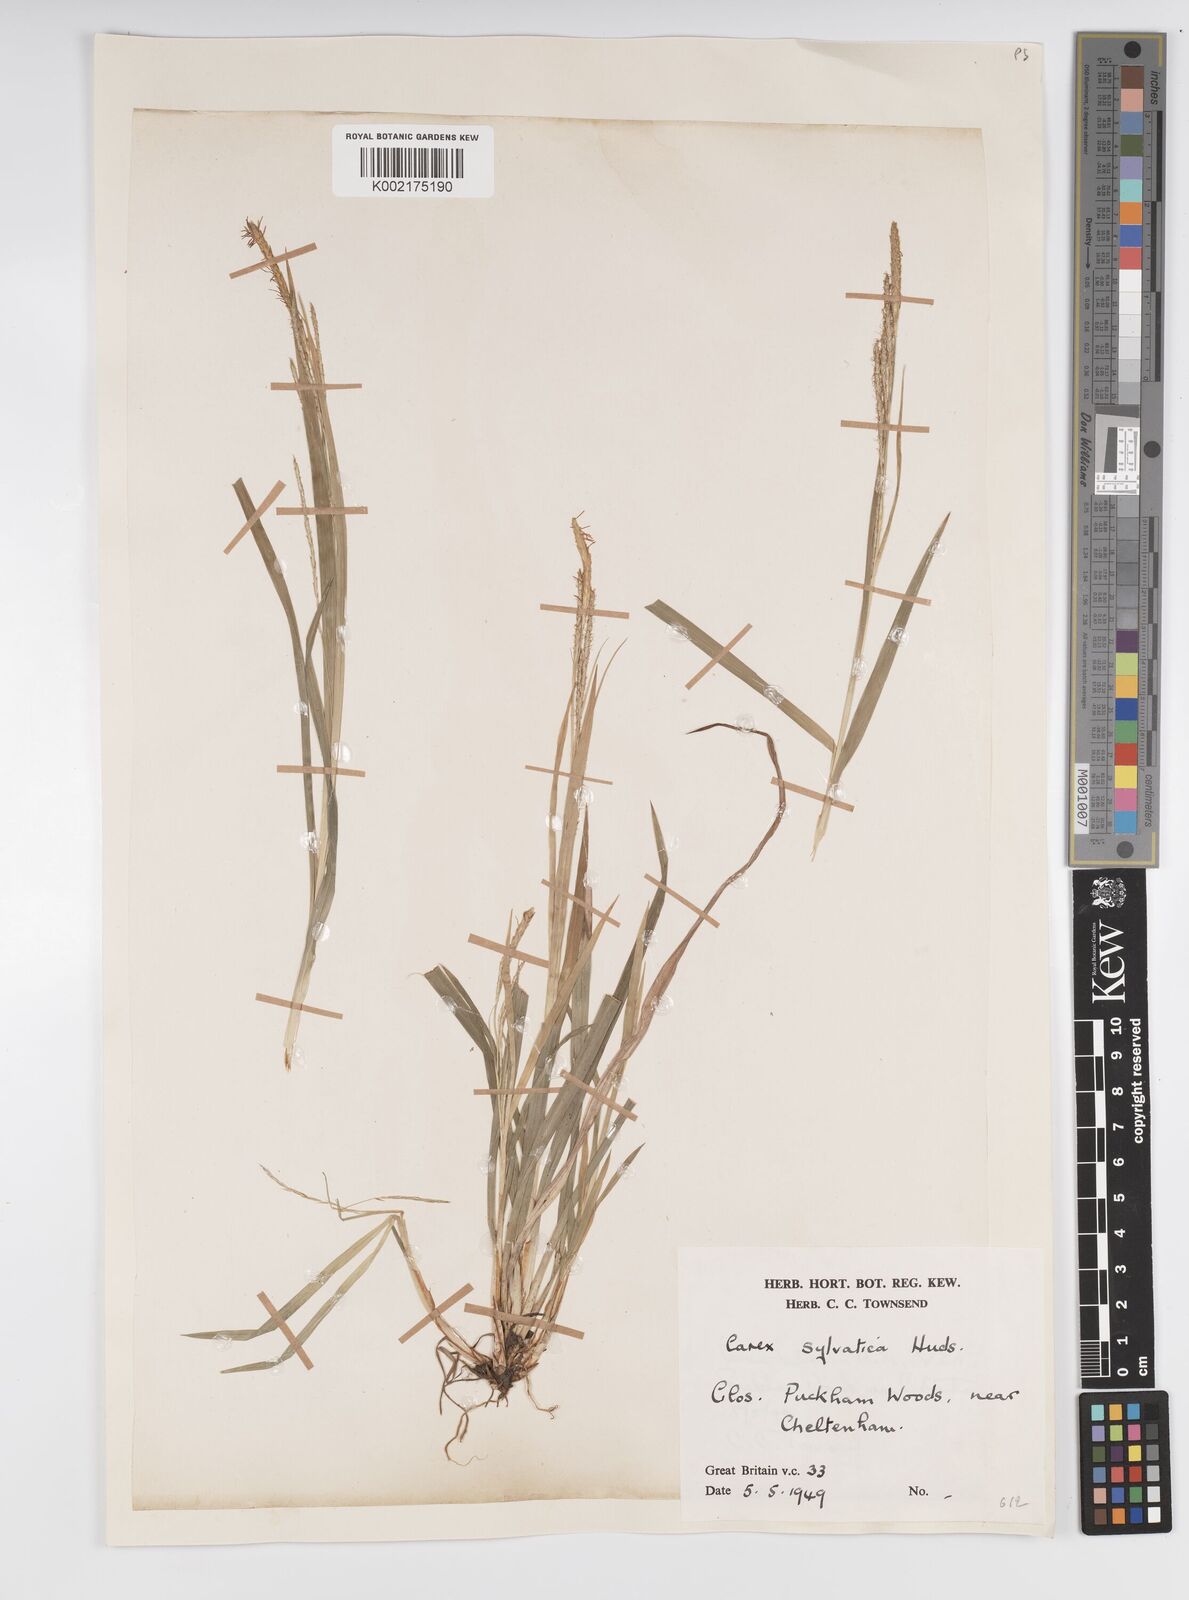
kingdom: Plantae
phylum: Tracheophyta
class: Liliopsida
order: Poales
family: Cyperaceae
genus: Carex
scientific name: Carex sylvatica
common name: Wood-sedge
